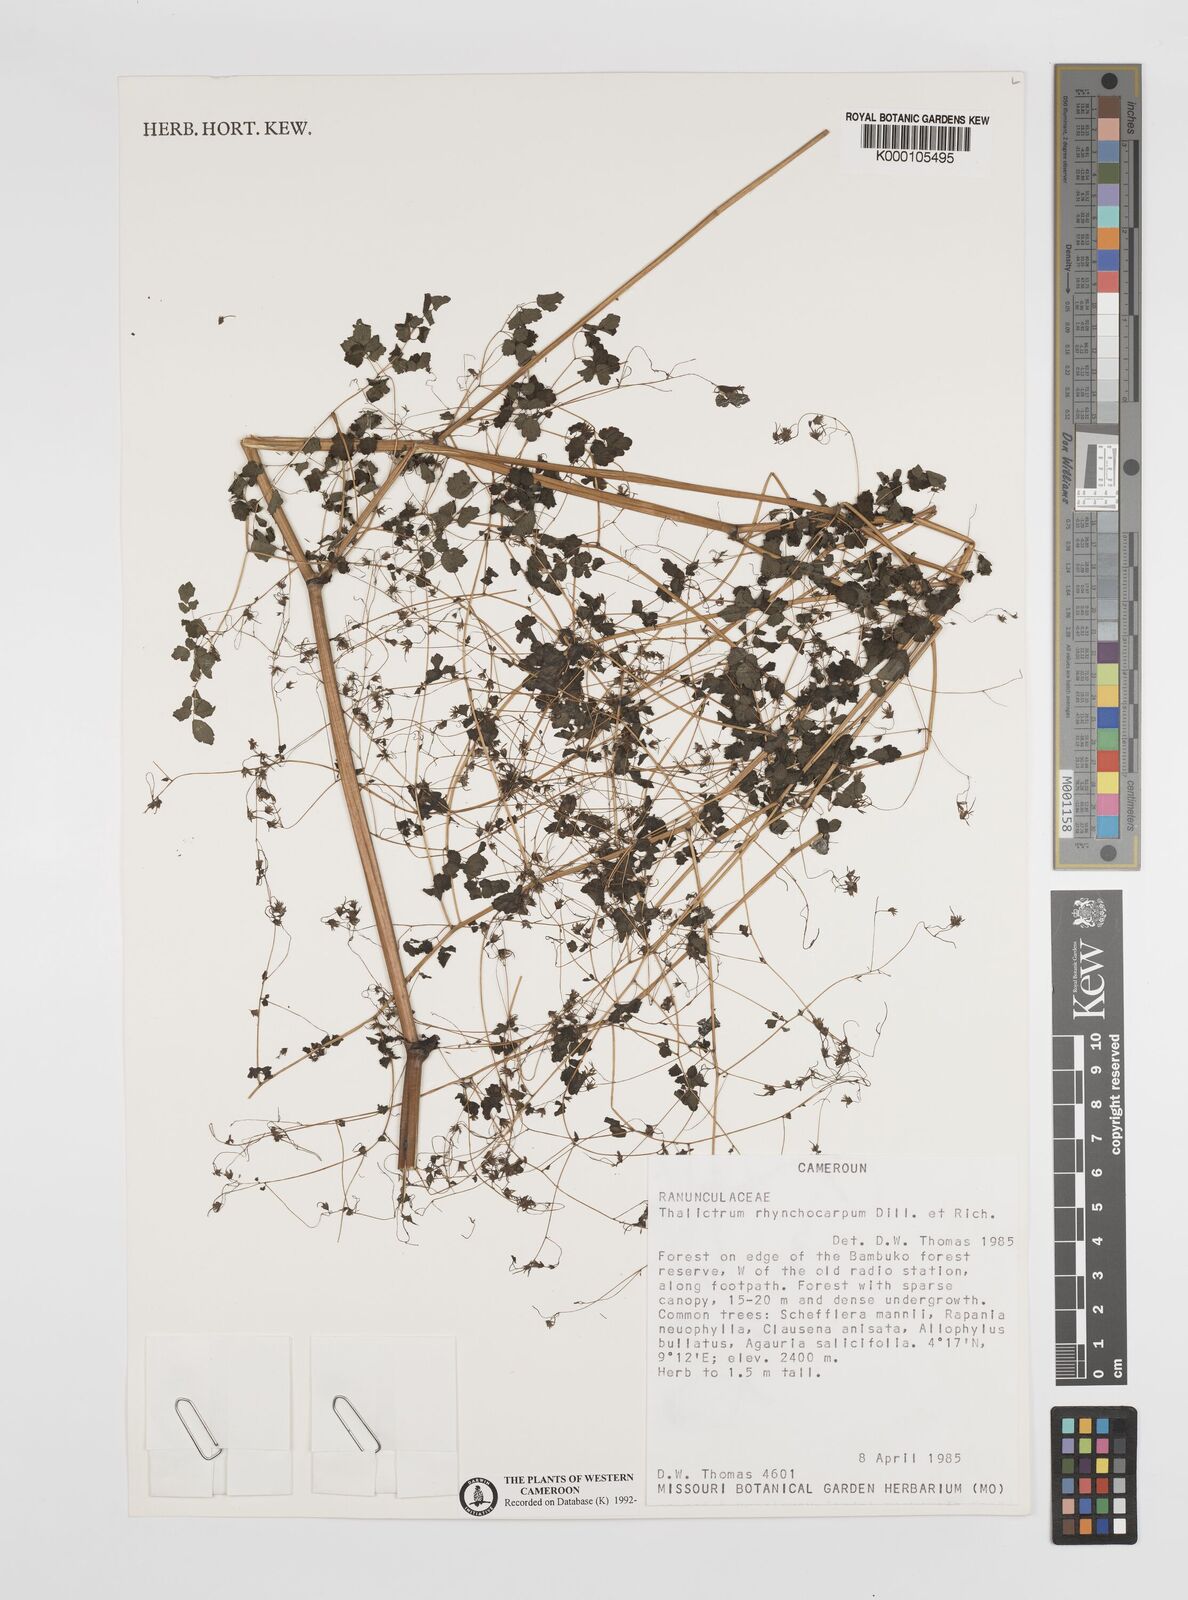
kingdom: Plantae
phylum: Tracheophyta
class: Magnoliopsida
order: Ranunculales
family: Ranunculaceae
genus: Thalictrum
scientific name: Thalictrum rhynchocarpum
